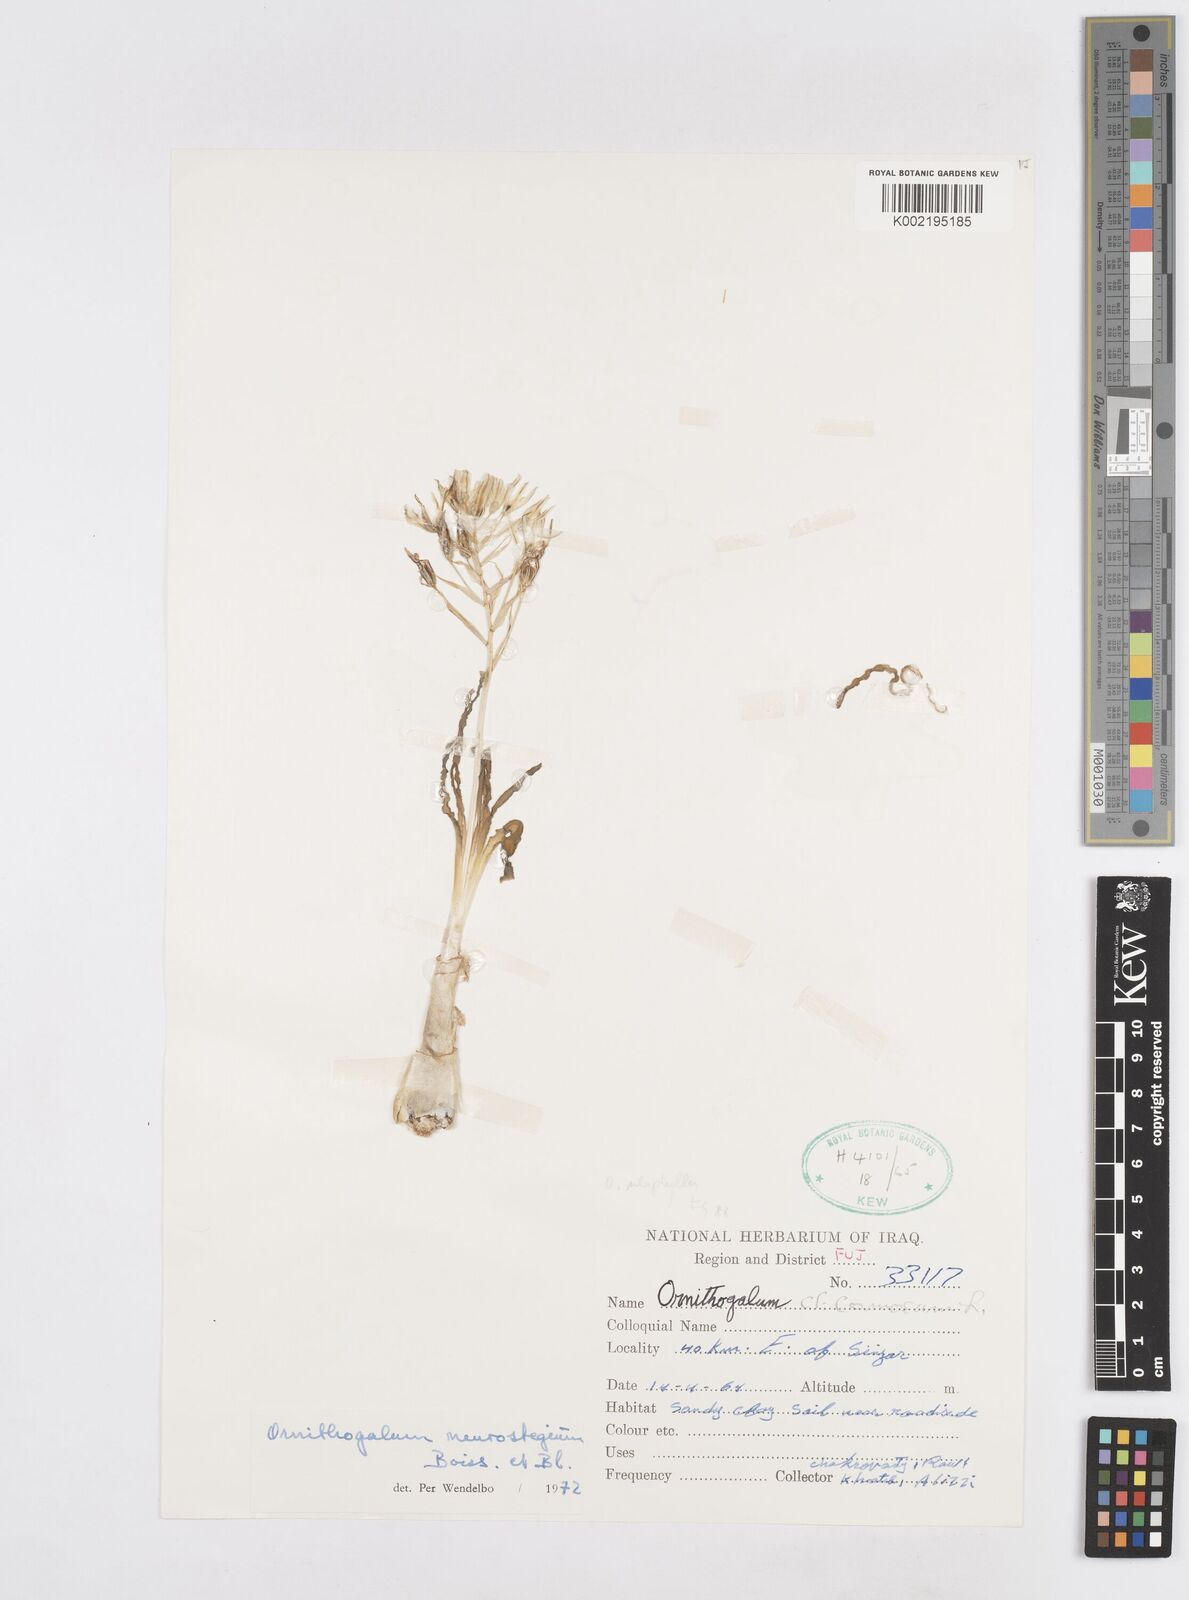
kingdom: Plantae
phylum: Tracheophyta
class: Liliopsida
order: Asparagales
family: Asparagaceae
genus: Ornithogalum
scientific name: Ornithogalum neurostegium
